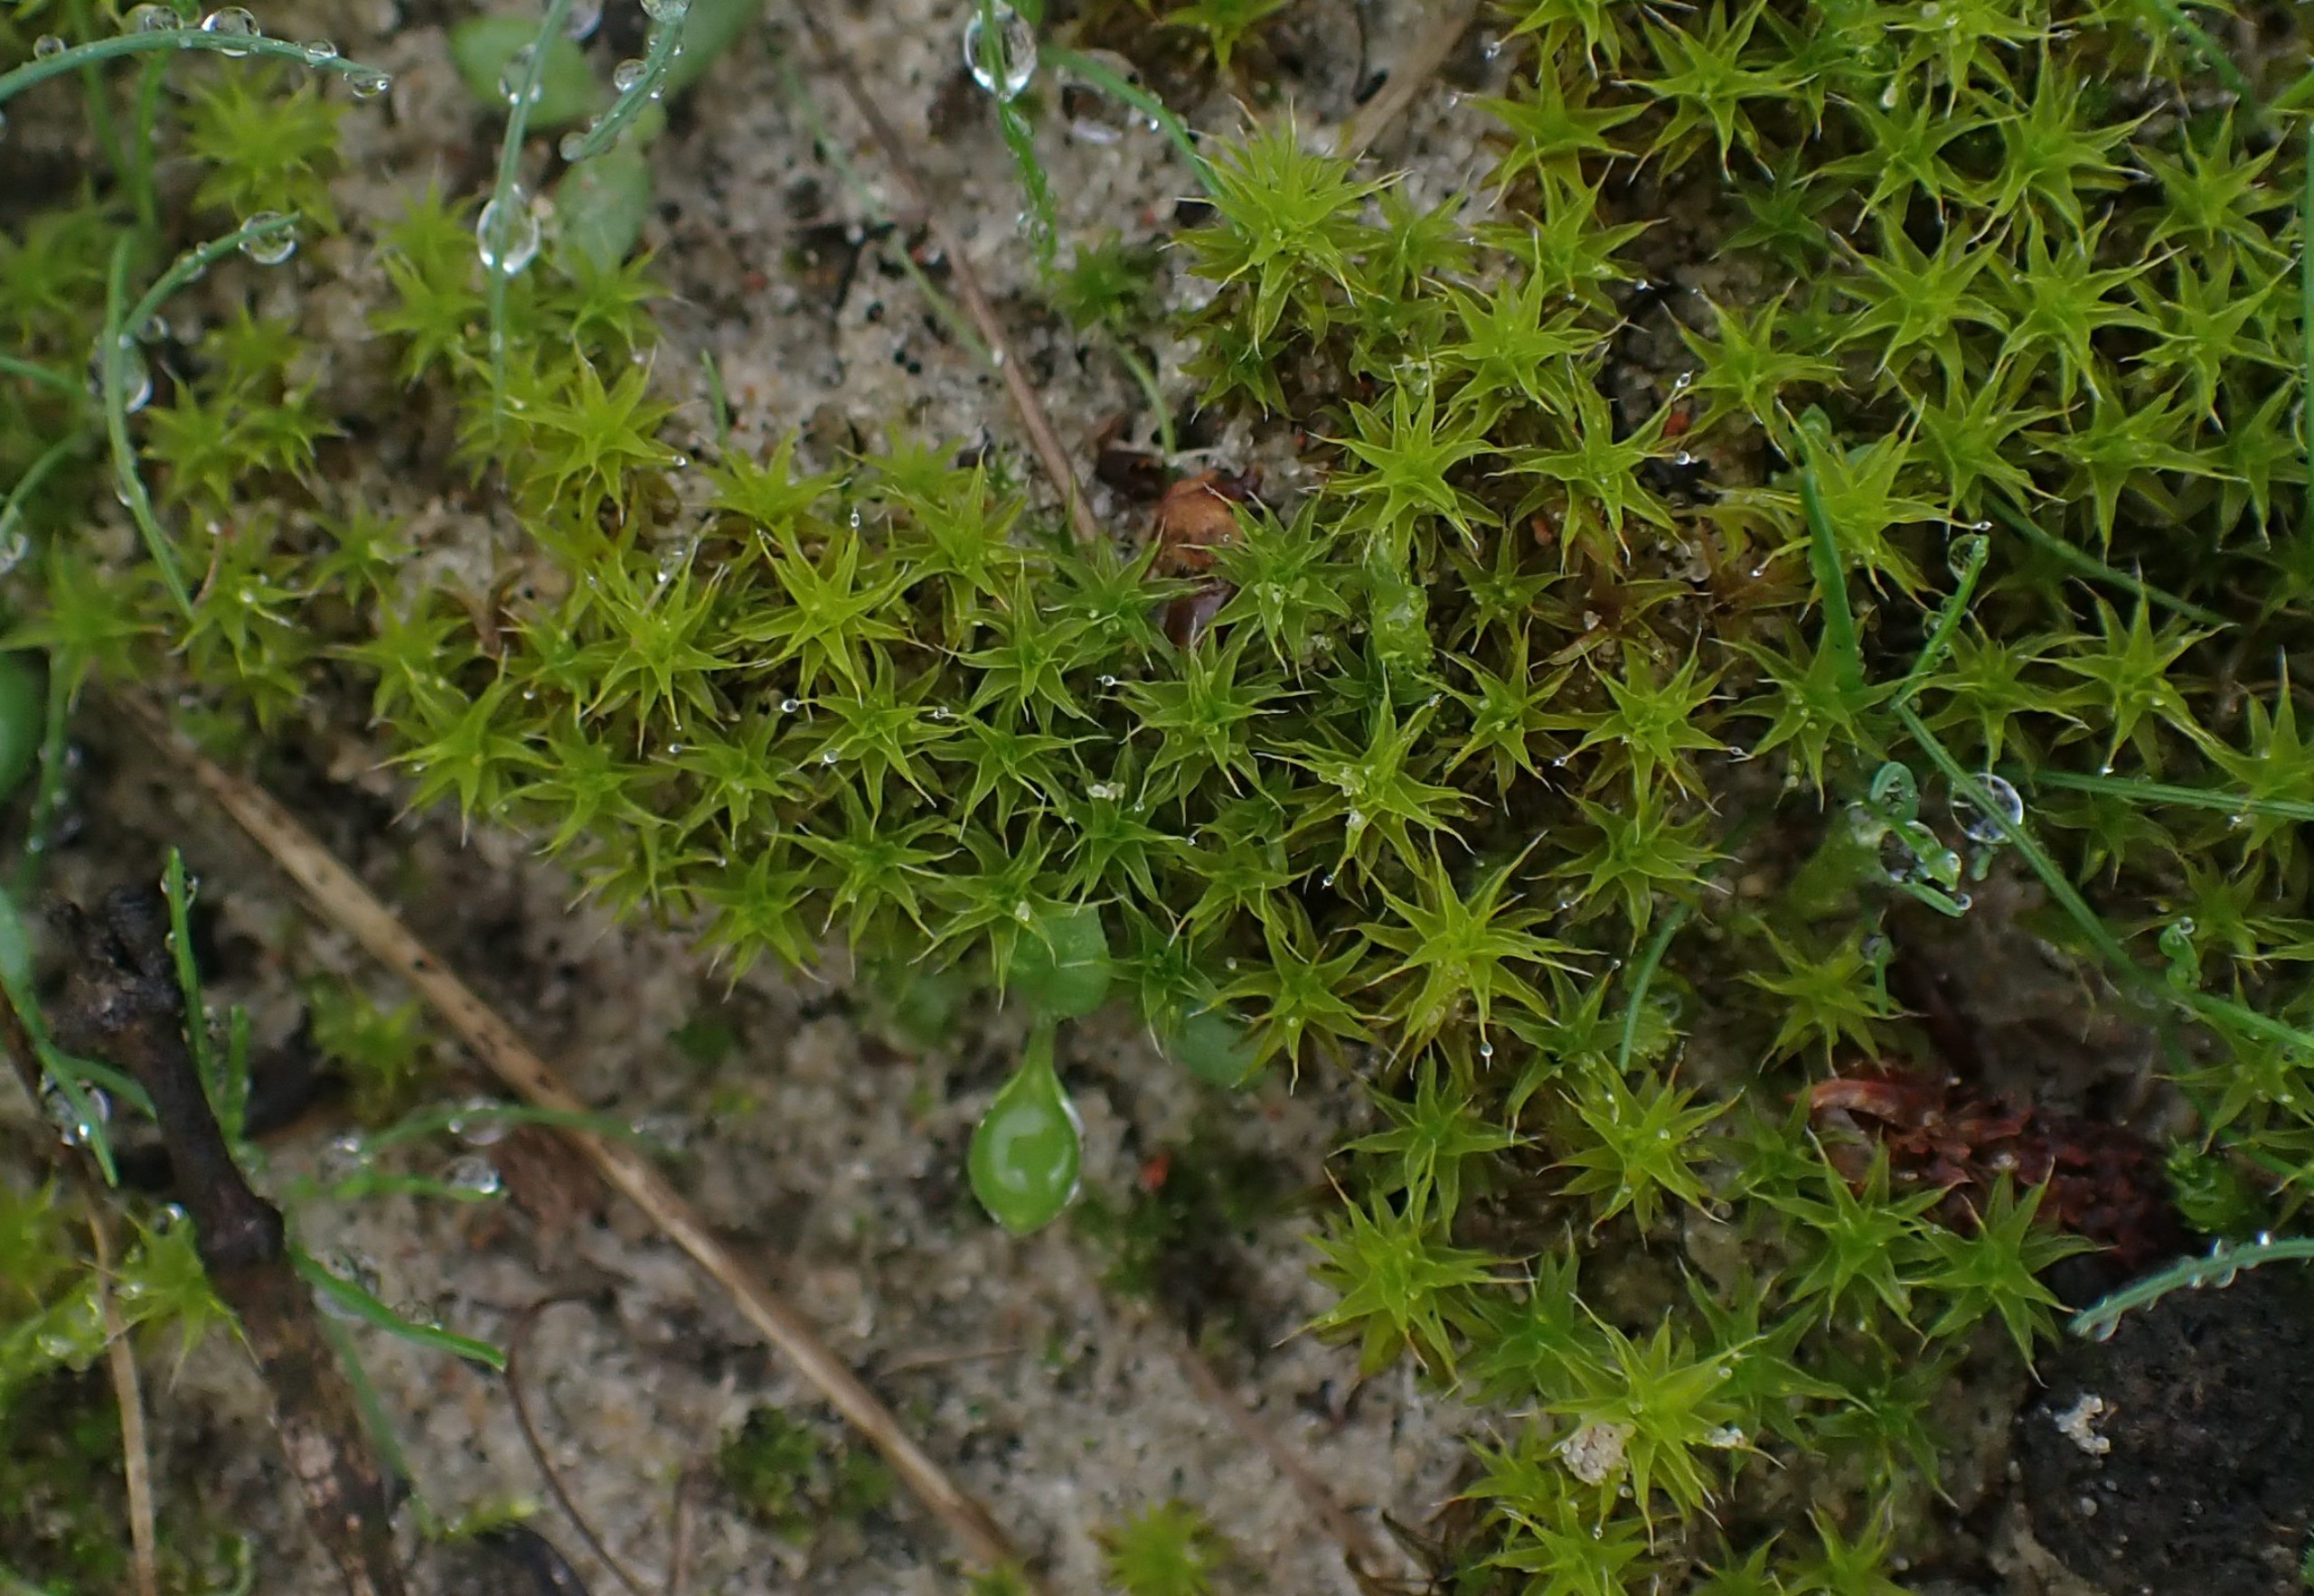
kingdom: Plantae
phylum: Bryophyta
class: Bryopsida
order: Pottiales
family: Pottiaceae
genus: Syntrichia
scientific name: Syntrichia ruralis
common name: Spidsbladet hårstjerne
